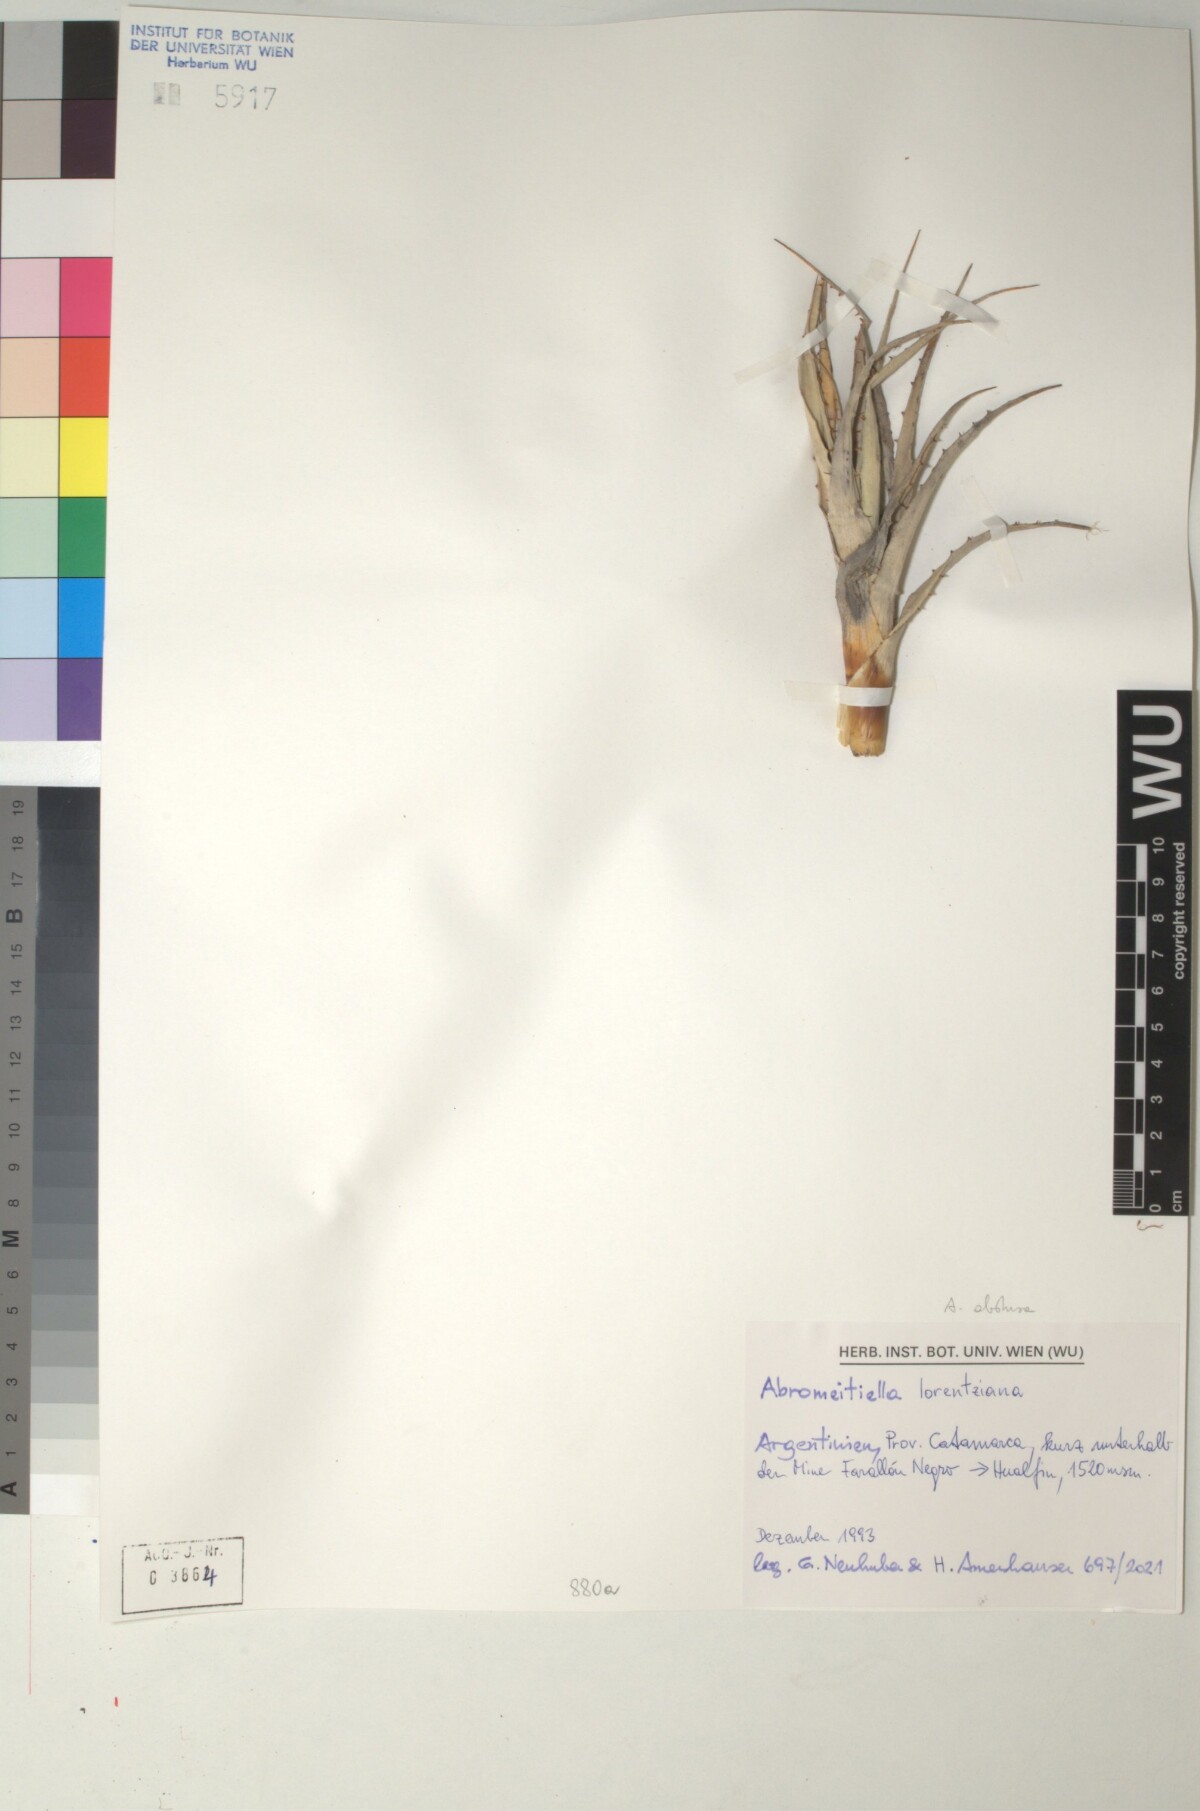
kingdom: Plantae
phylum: Tracheophyta
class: Liliopsida
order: Poales
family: Bromeliaceae
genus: Deuterocohnia
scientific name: Deuterocohnia abstrusa
